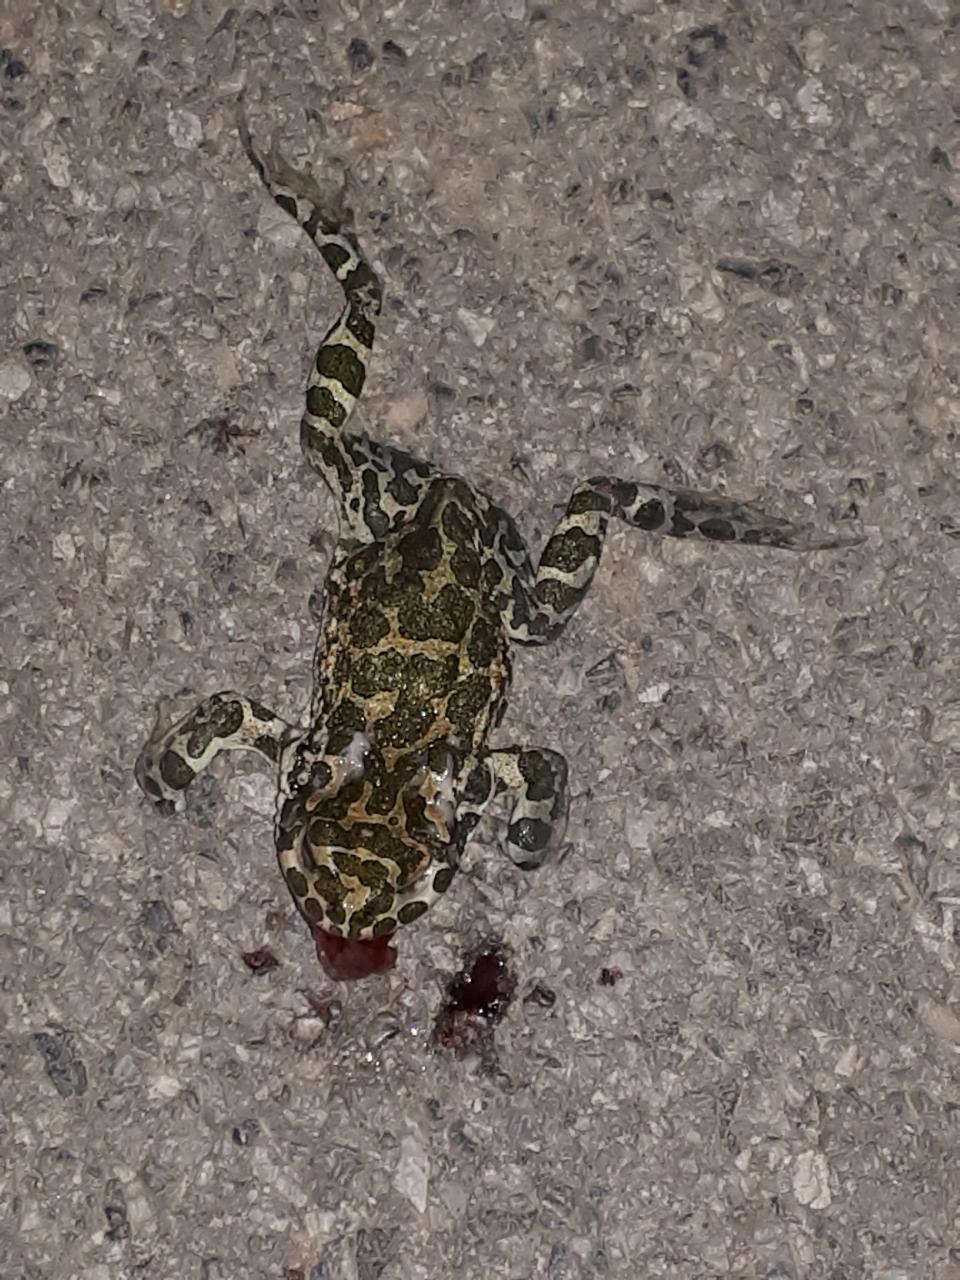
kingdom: Animalia
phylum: Chordata
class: Amphibia
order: Anura
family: Bufonidae
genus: Bufotes
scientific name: Bufotes viridis
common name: European green toad
